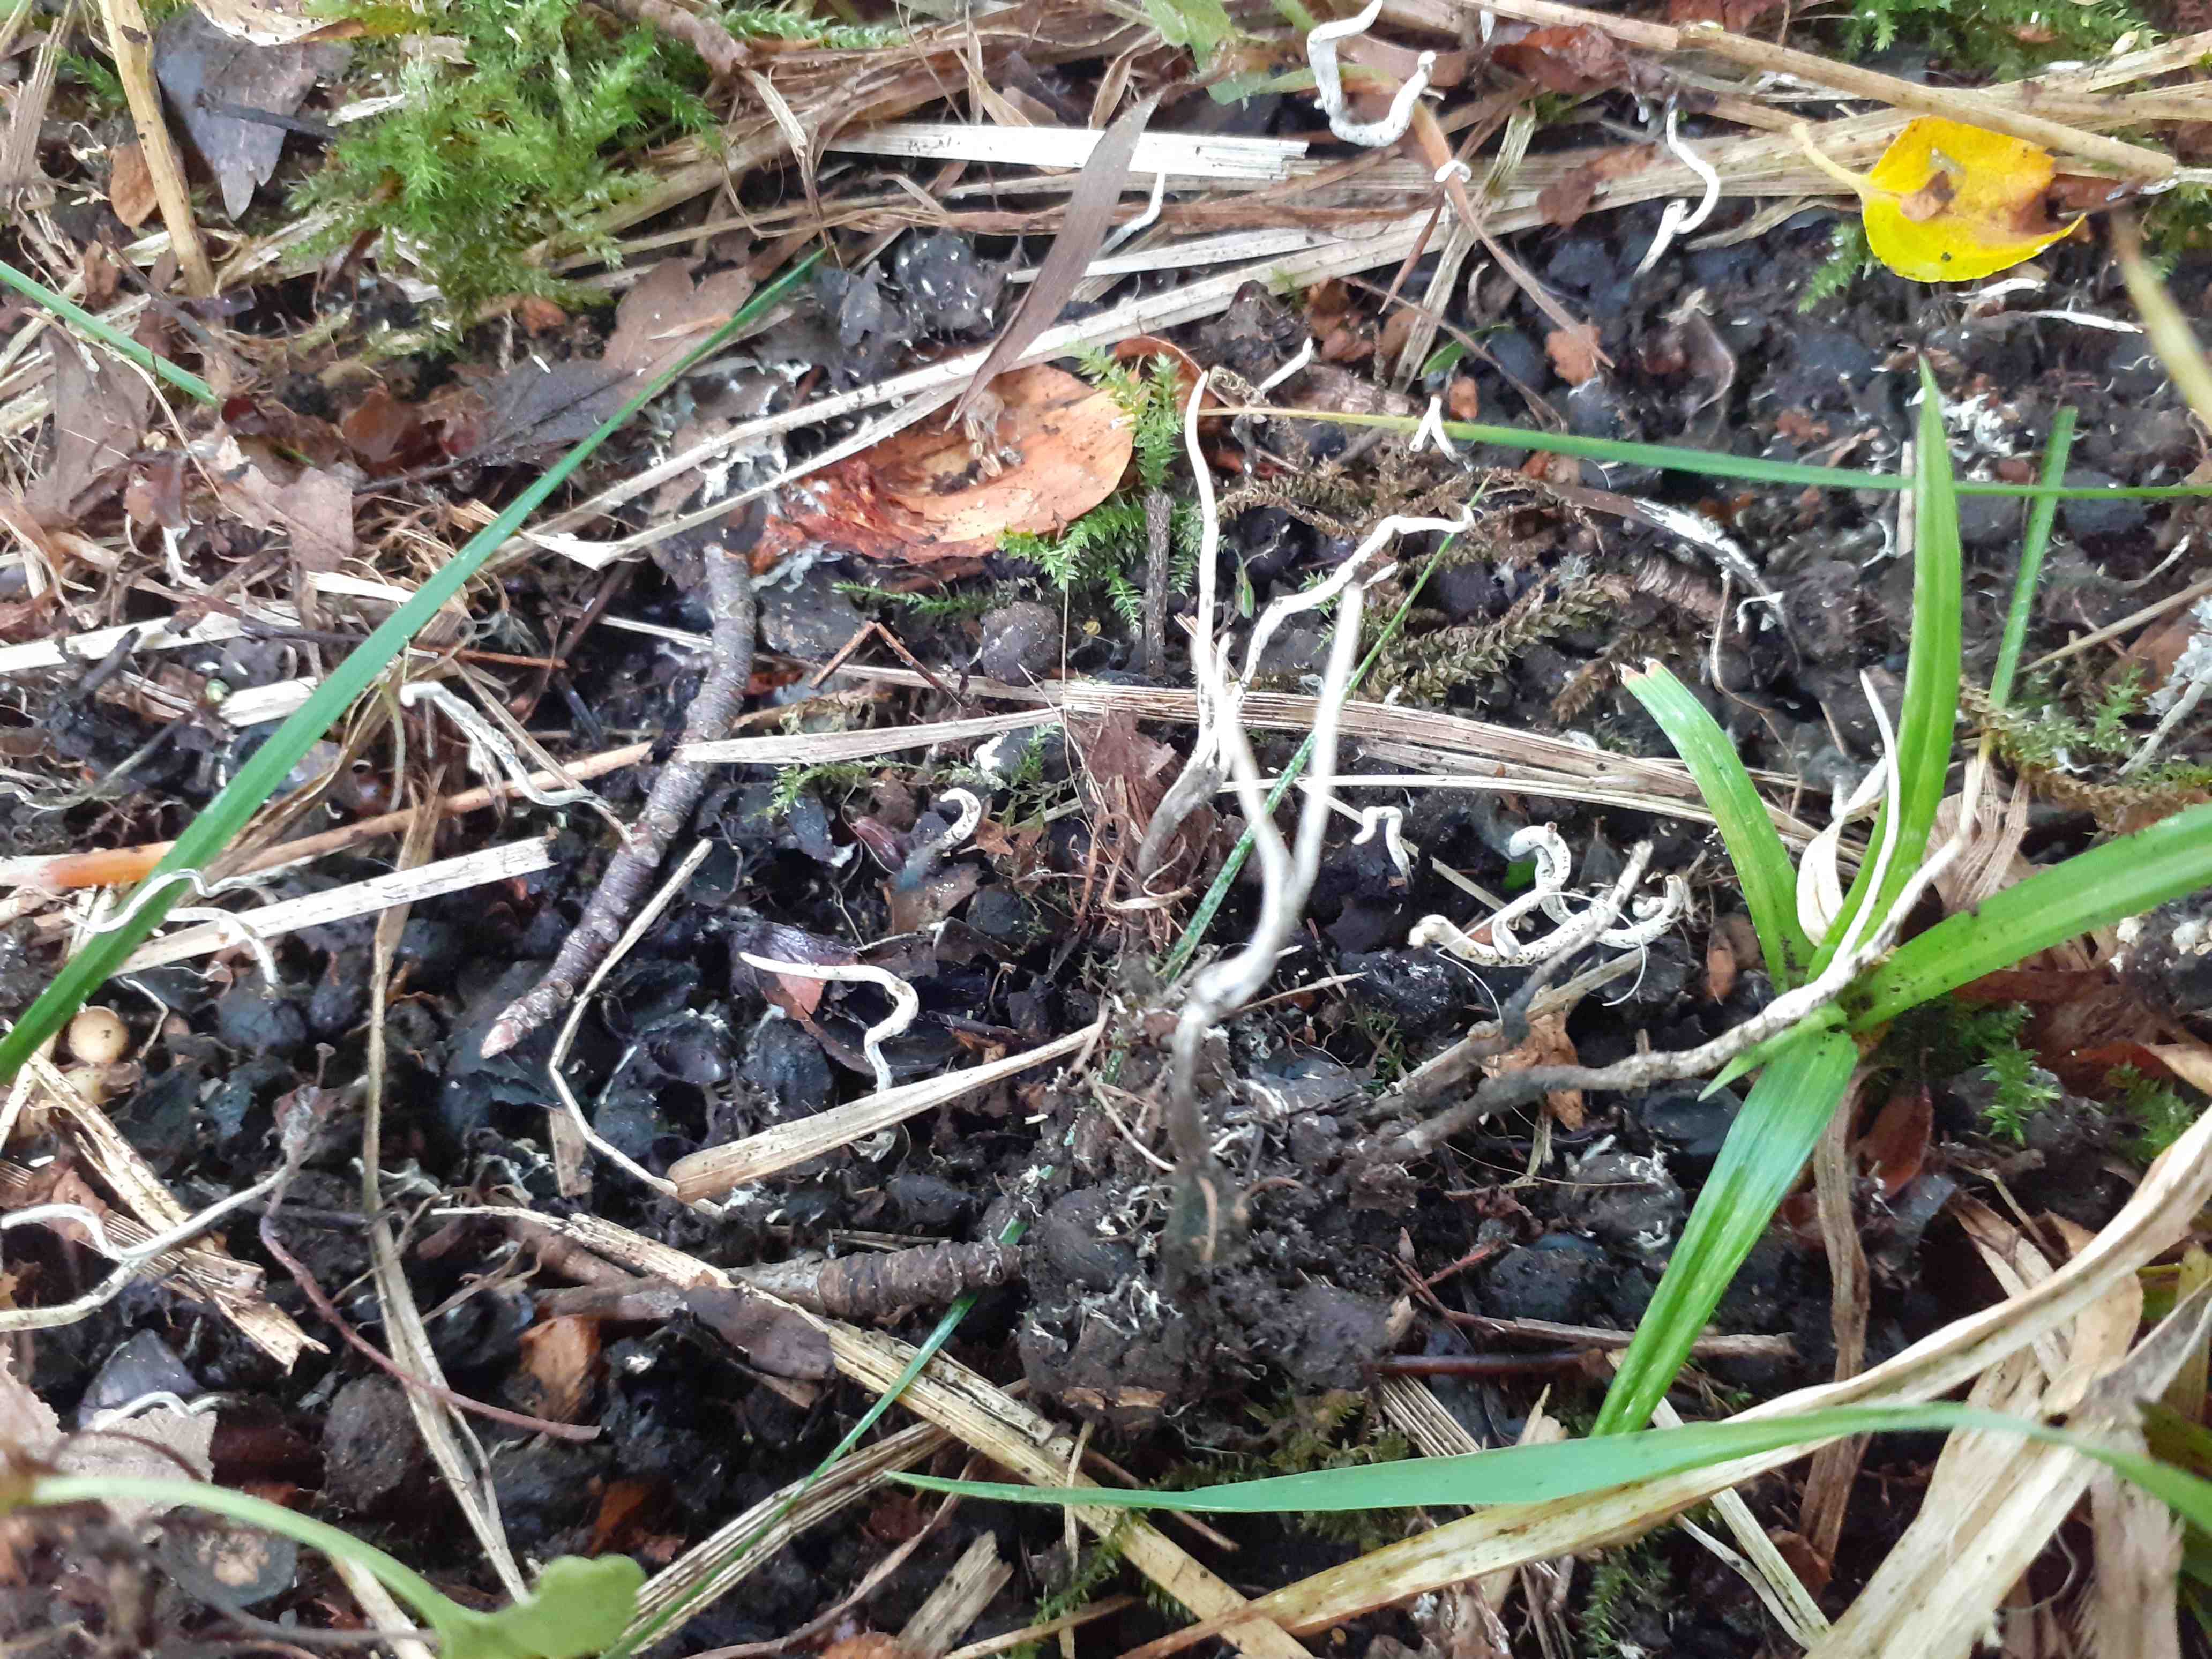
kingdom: Fungi
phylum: Ascomycota
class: Sordariomycetes
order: Xylariales
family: Xylariaceae
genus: Xylaria
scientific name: Xylaria oxyacanthae
